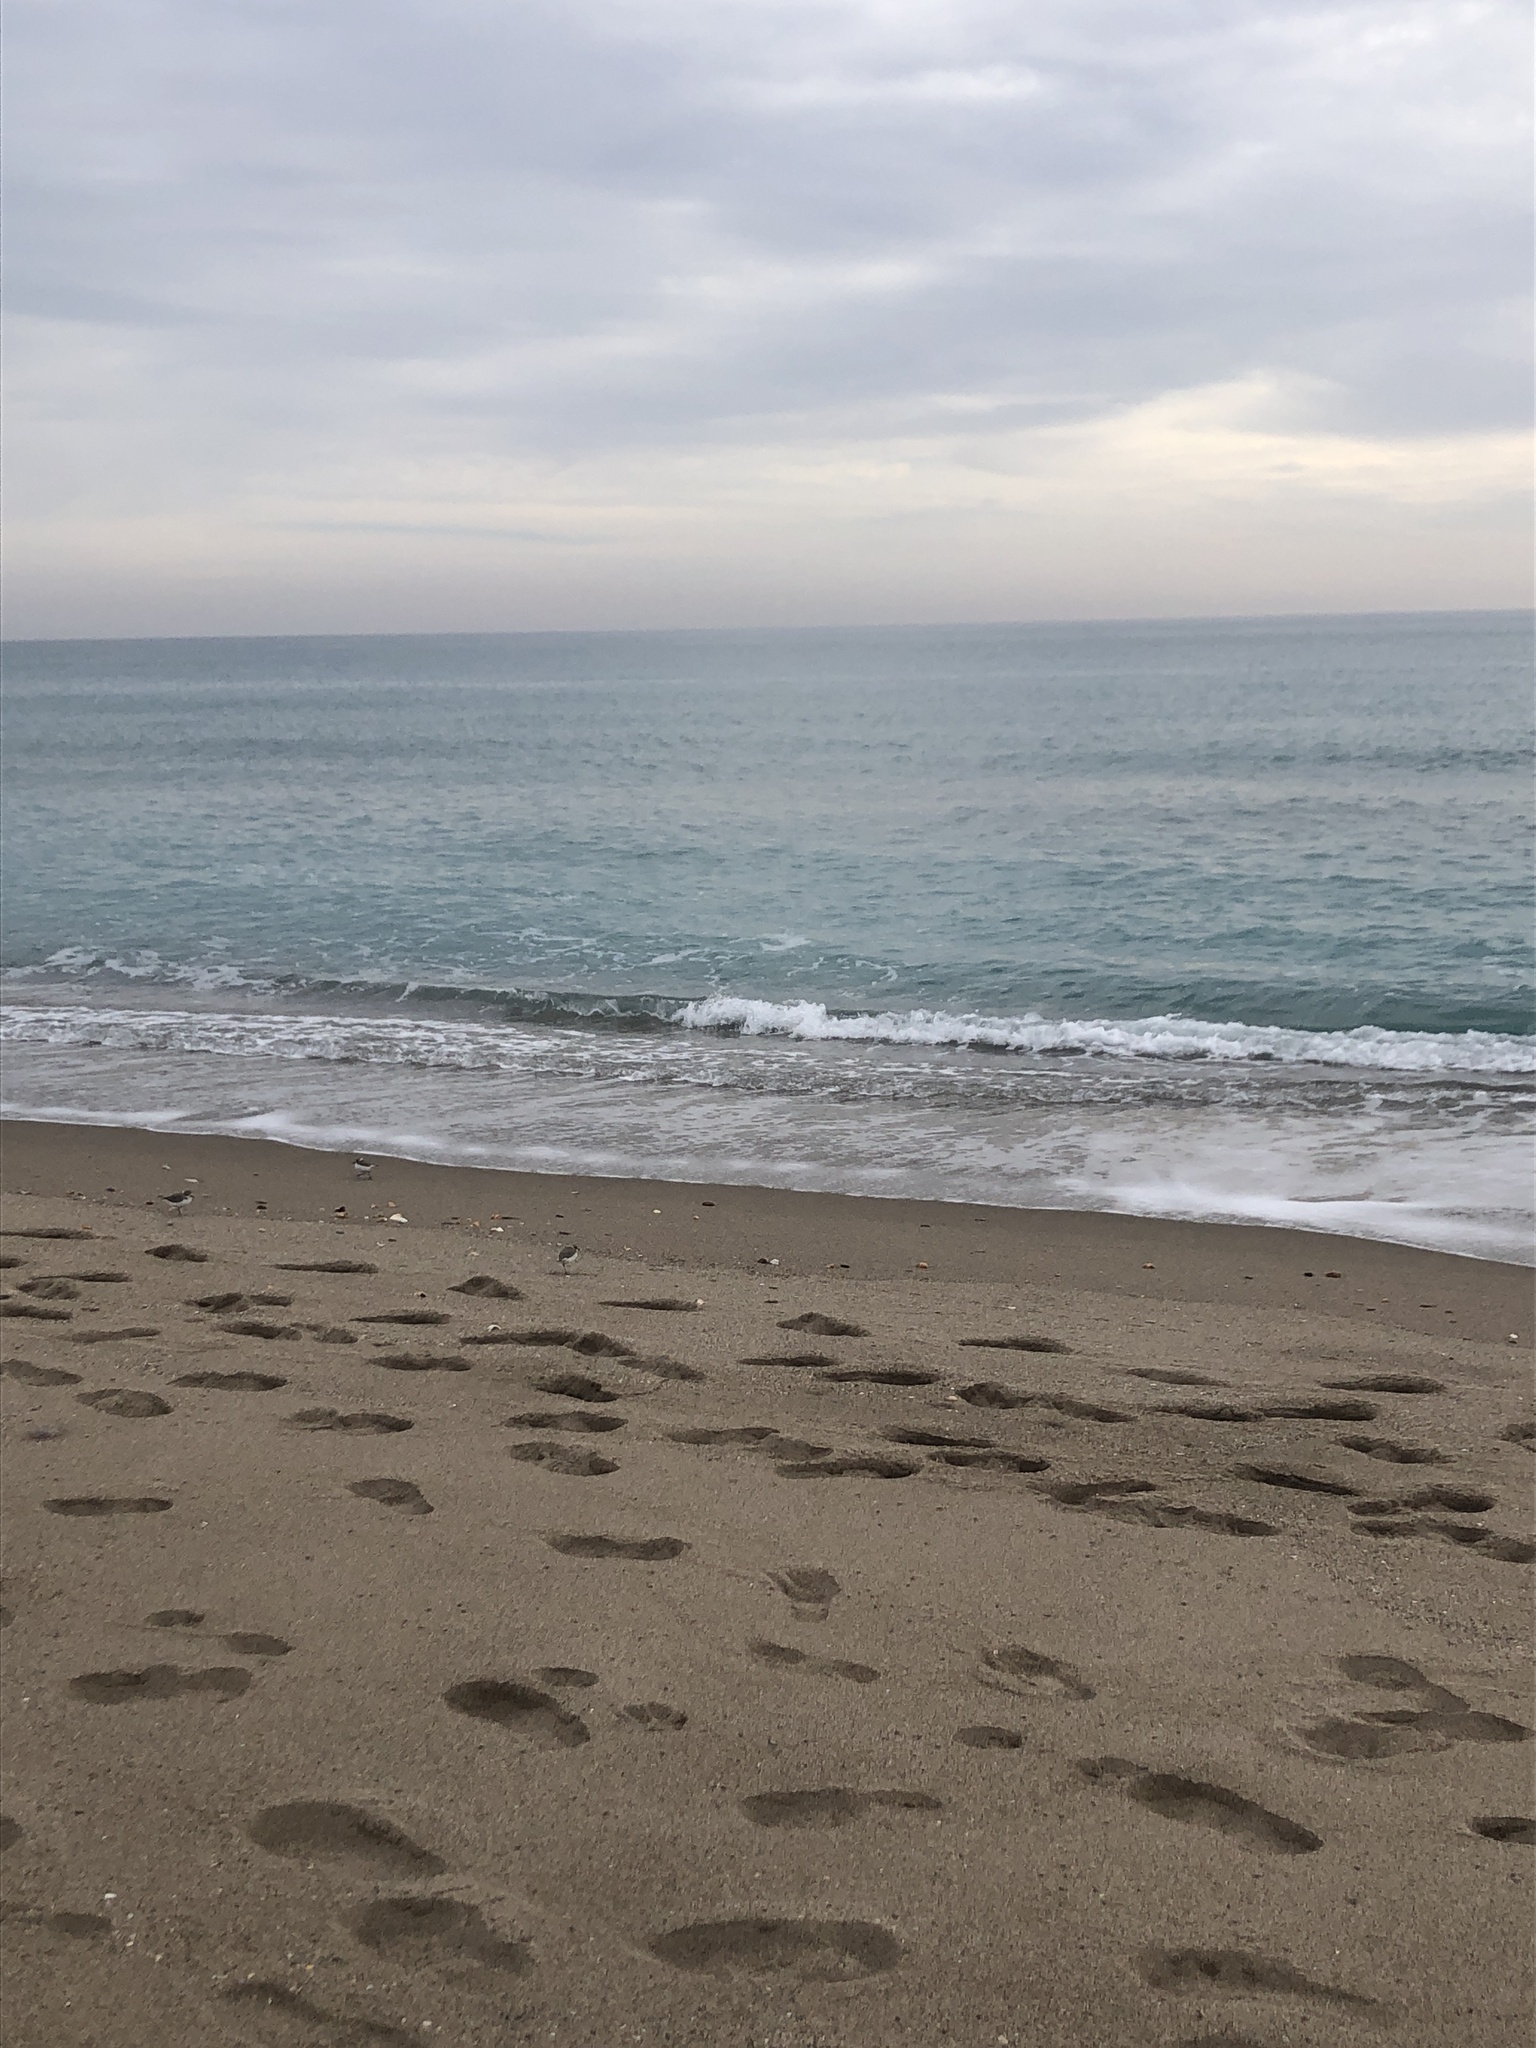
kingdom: Animalia
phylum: Chordata
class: Aves
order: Charadriiformes
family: Charadriidae
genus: Charadrius
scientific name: Charadrius alexandrinus
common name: Kentish plover
